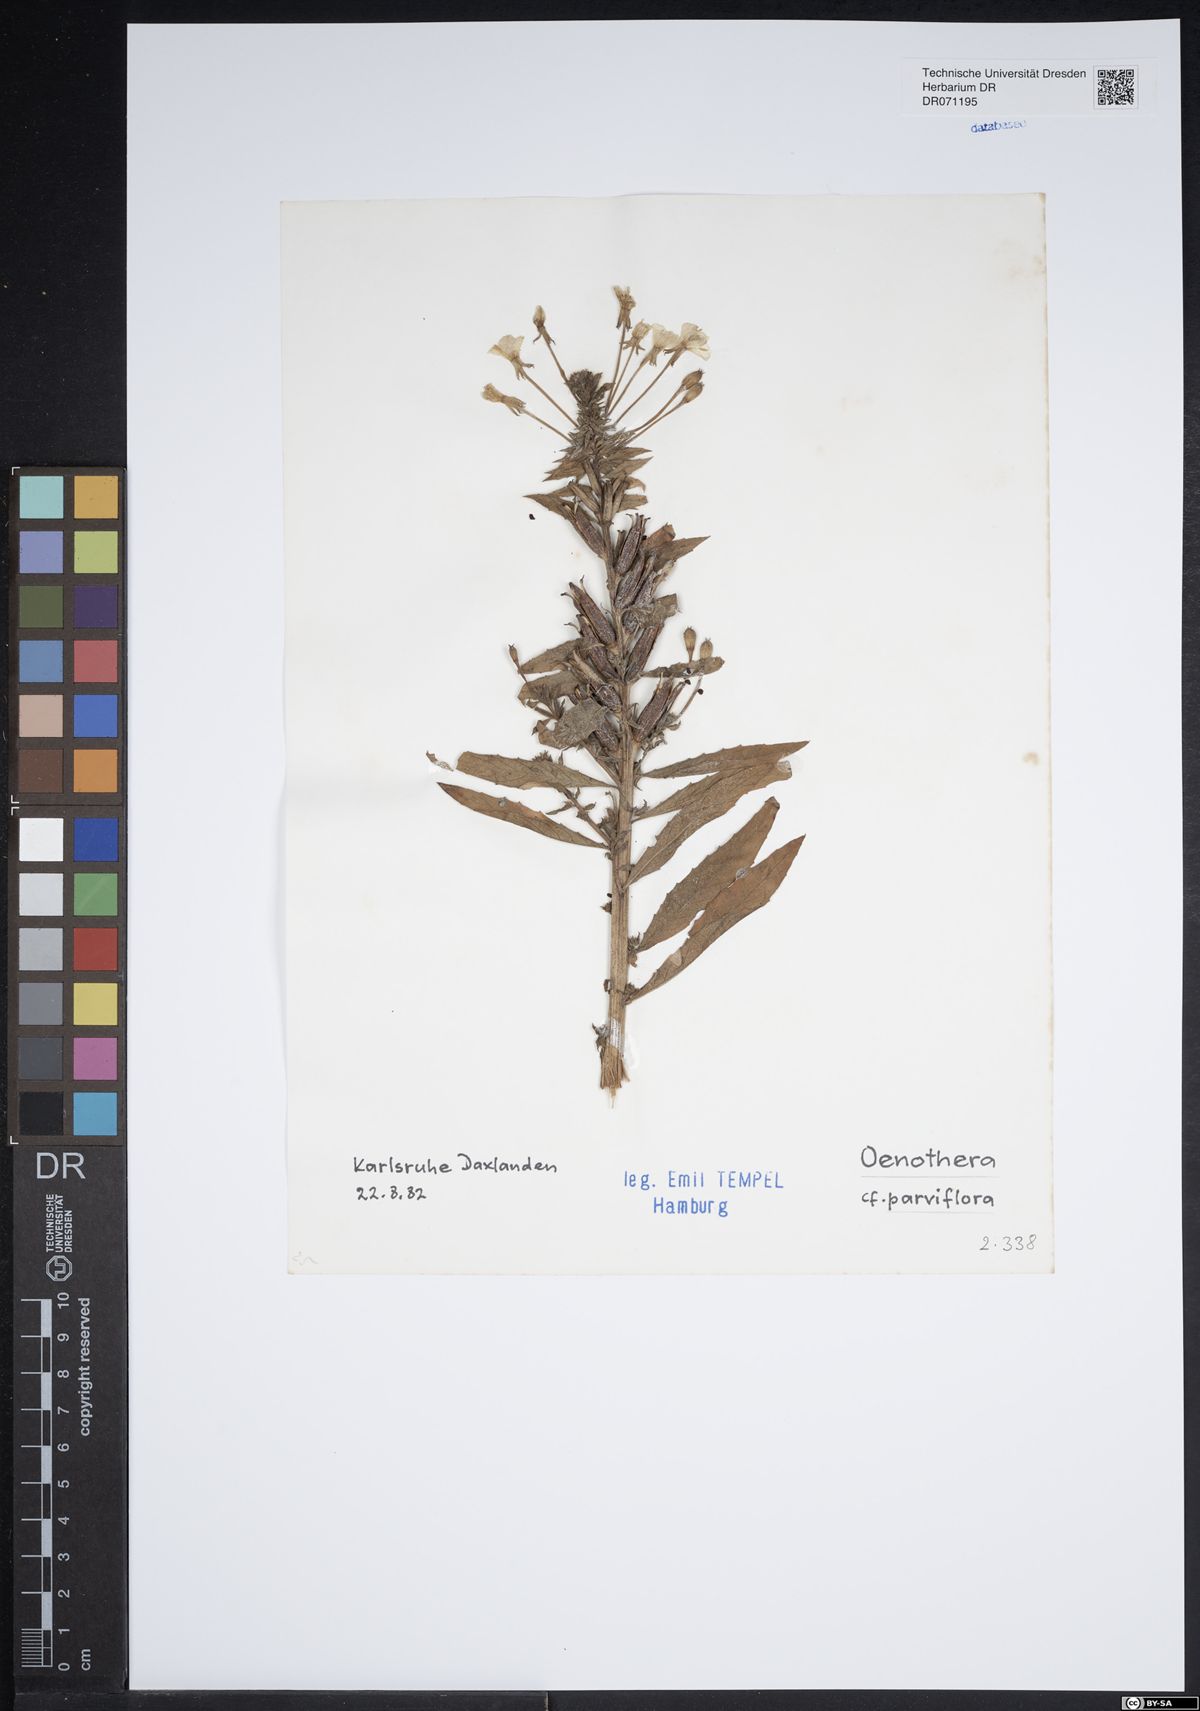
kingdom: Plantae
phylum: Tracheophyta
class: Magnoliopsida
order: Myrtales
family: Onagraceae
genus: Oenothera
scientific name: Oenothera parviflora
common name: Least evening-primrose
